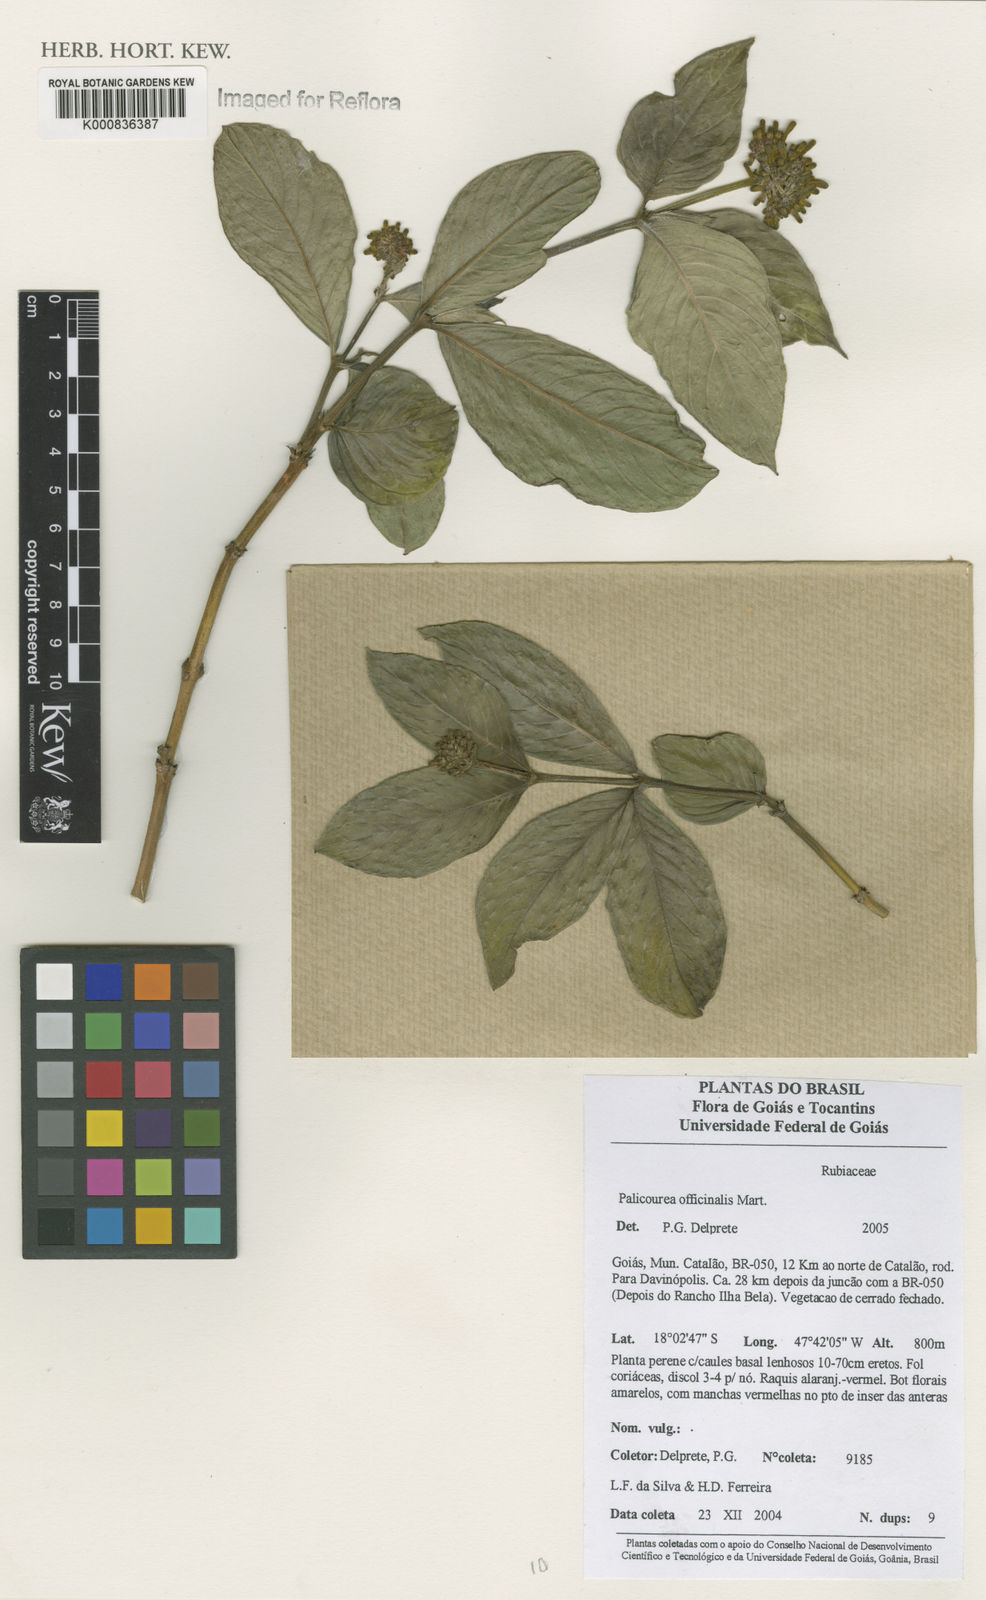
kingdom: Plantae
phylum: Tracheophyta
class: Magnoliopsida
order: Gentianales
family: Rubiaceae
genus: Palicourea
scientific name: Palicourea officinalis
